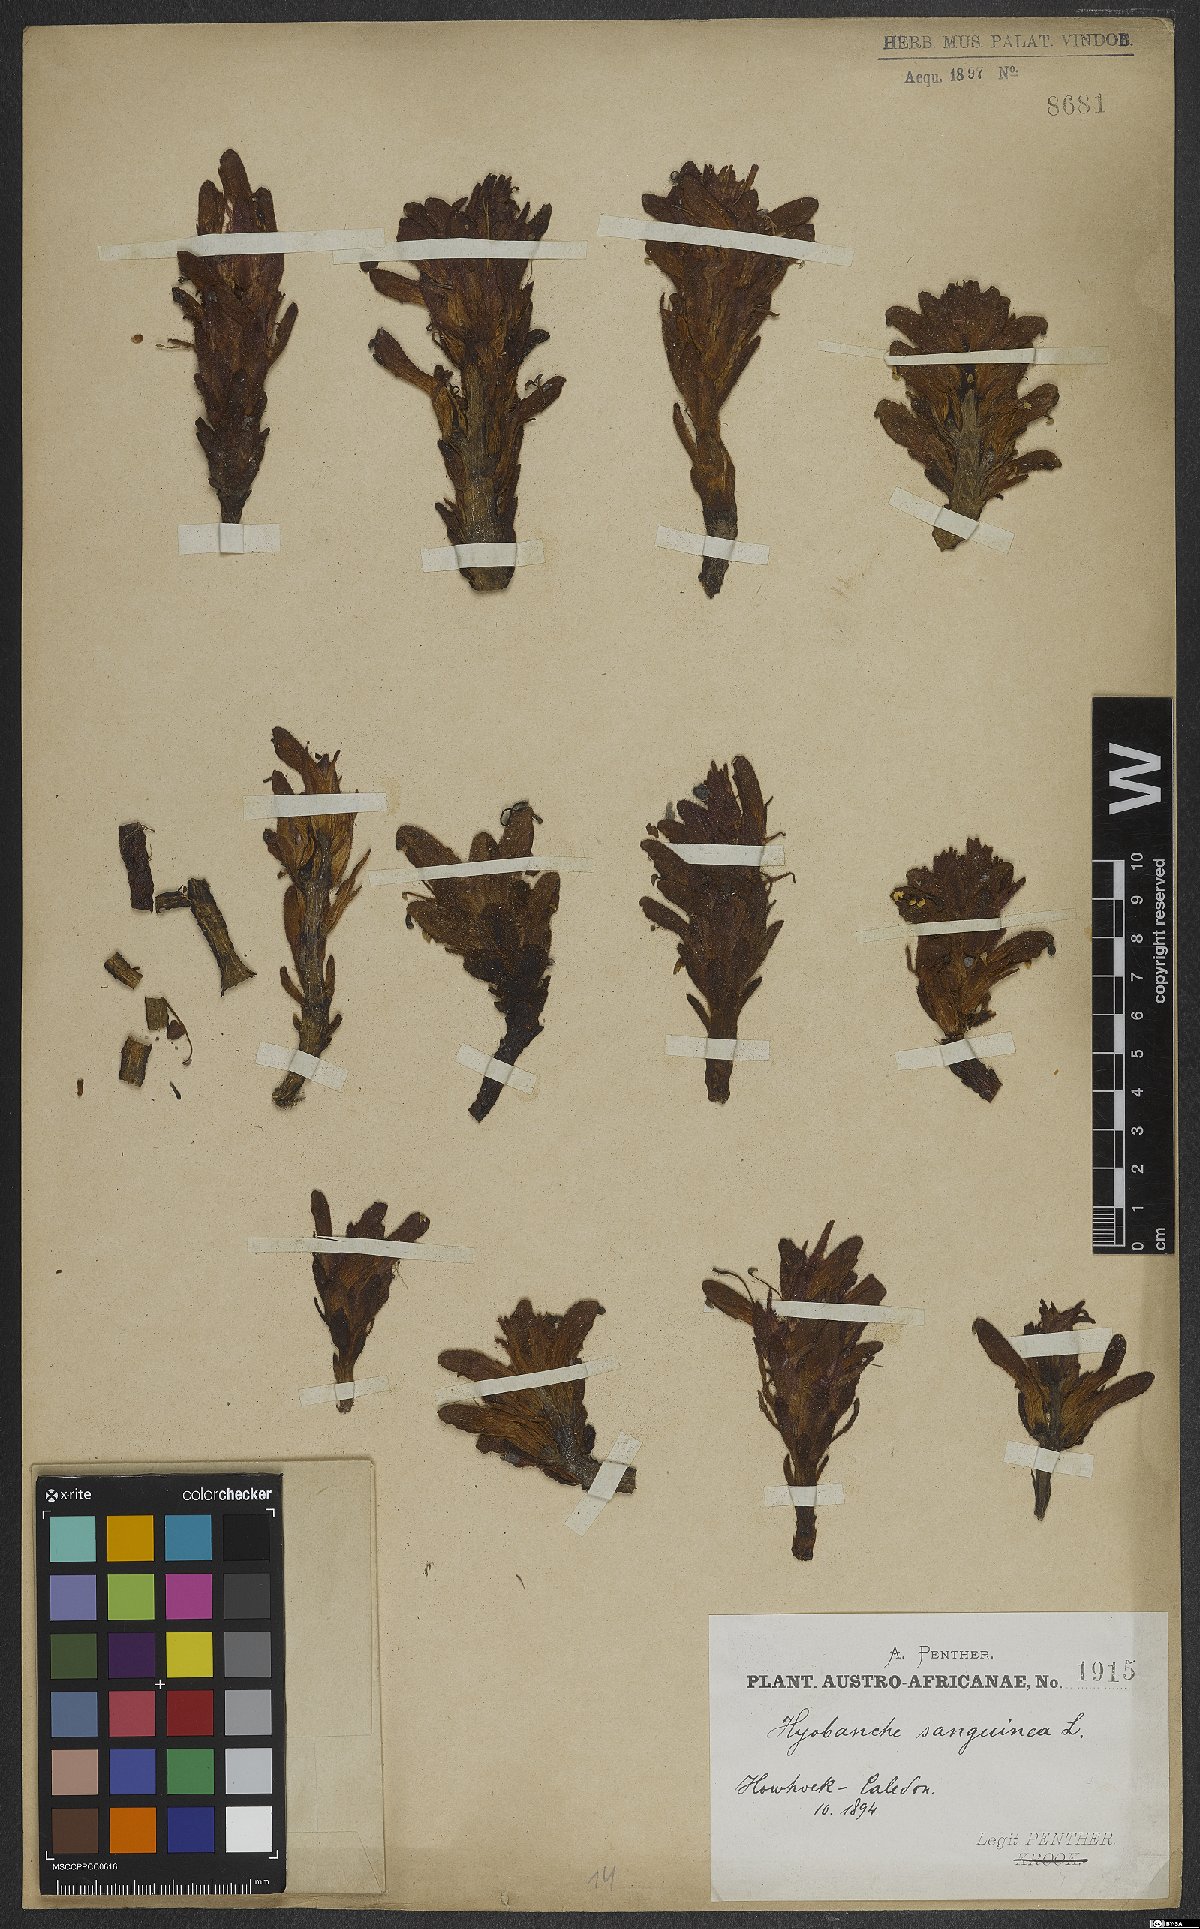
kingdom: Plantae
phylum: Tracheophyta
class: Magnoliopsida
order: Lamiales
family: Orobanchaceae
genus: Hyobanche
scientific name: Hyobanche sanguinea
